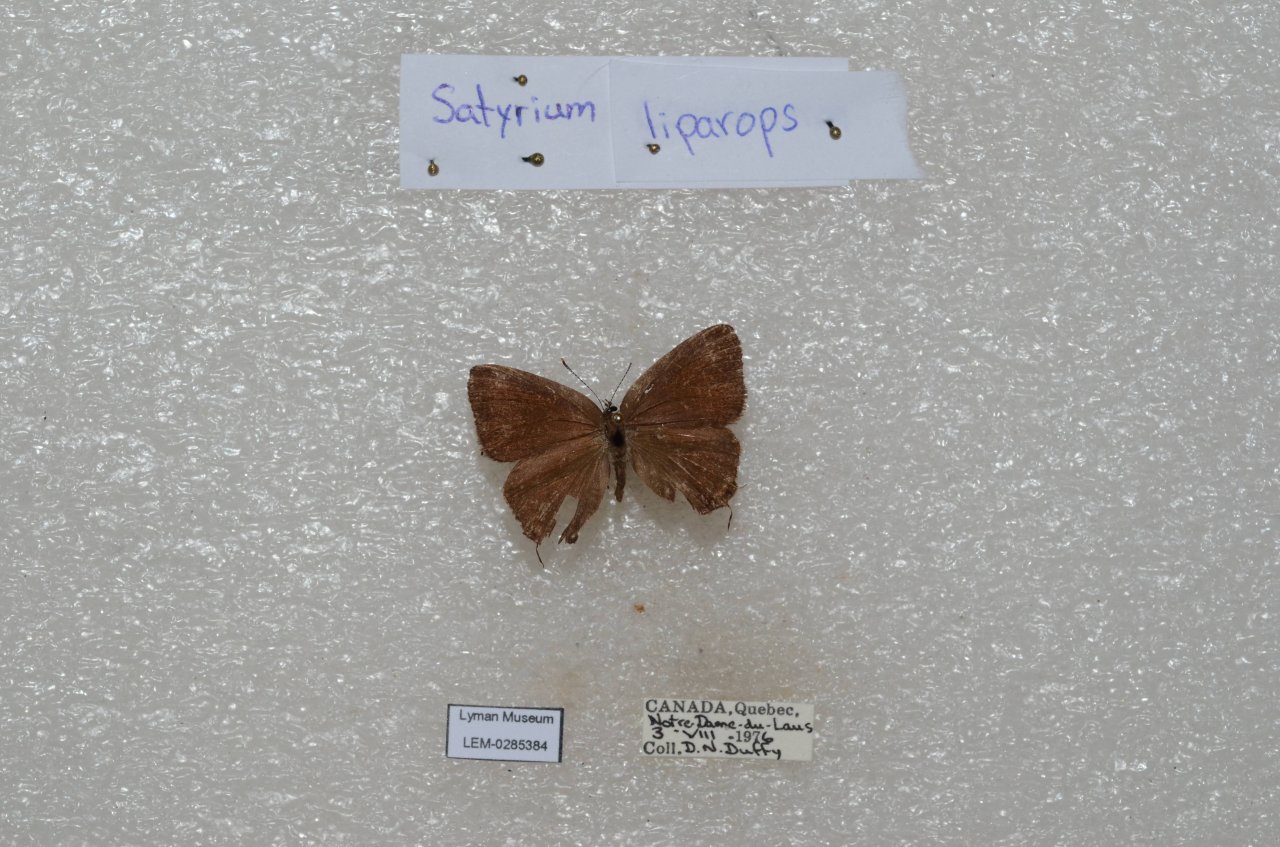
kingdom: Animalia
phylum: Arthropoda
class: Insecta
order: Lepidoptera
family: Lycaenidae
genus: Satyrium
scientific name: Satyrium liparops
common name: Striped Hairstreak
